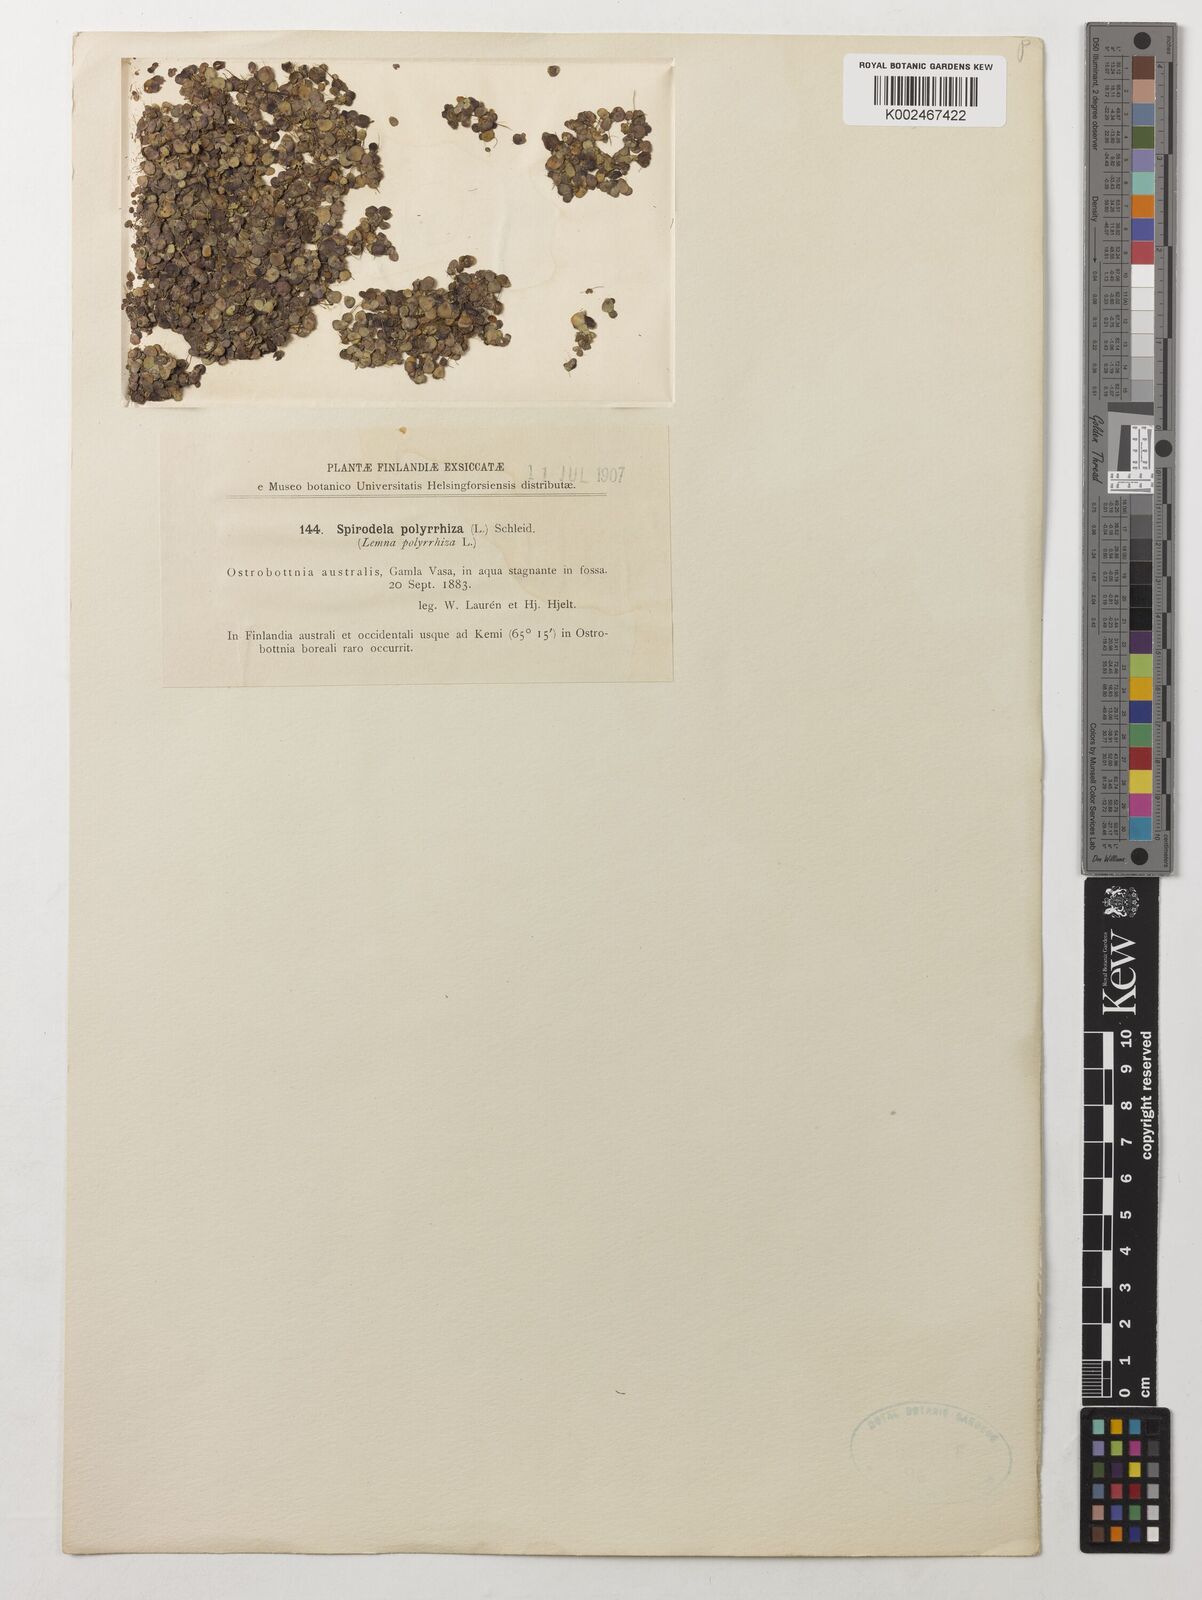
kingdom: Plantae
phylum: Tracheophyta
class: Liliopsida
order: Alismatales
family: Araceae
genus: Spirodela
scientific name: Spirodela polyrhiza
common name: Great duckweed
